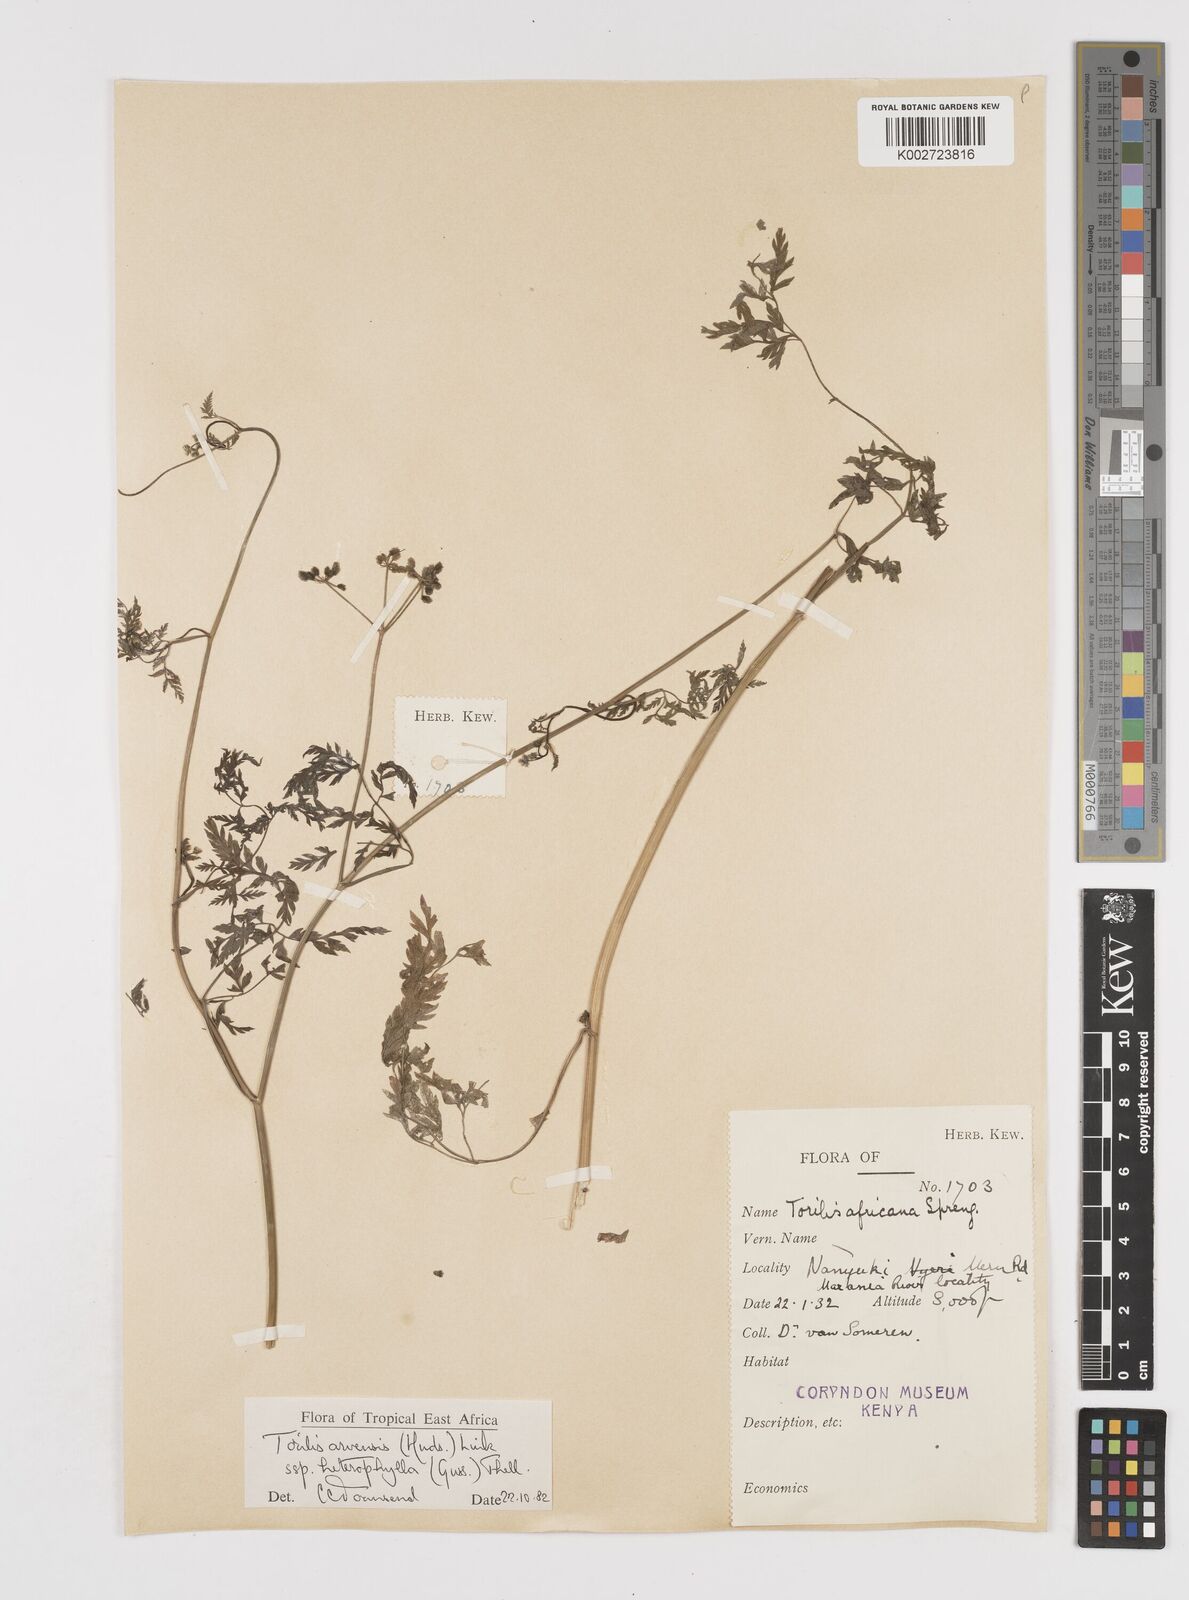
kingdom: Plantae
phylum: Tracheophyta
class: Magnoliopsida
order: Apiales
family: Apiaceae
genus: Torilis
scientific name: Torilis arvensis
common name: Spreading hedge-parsley
